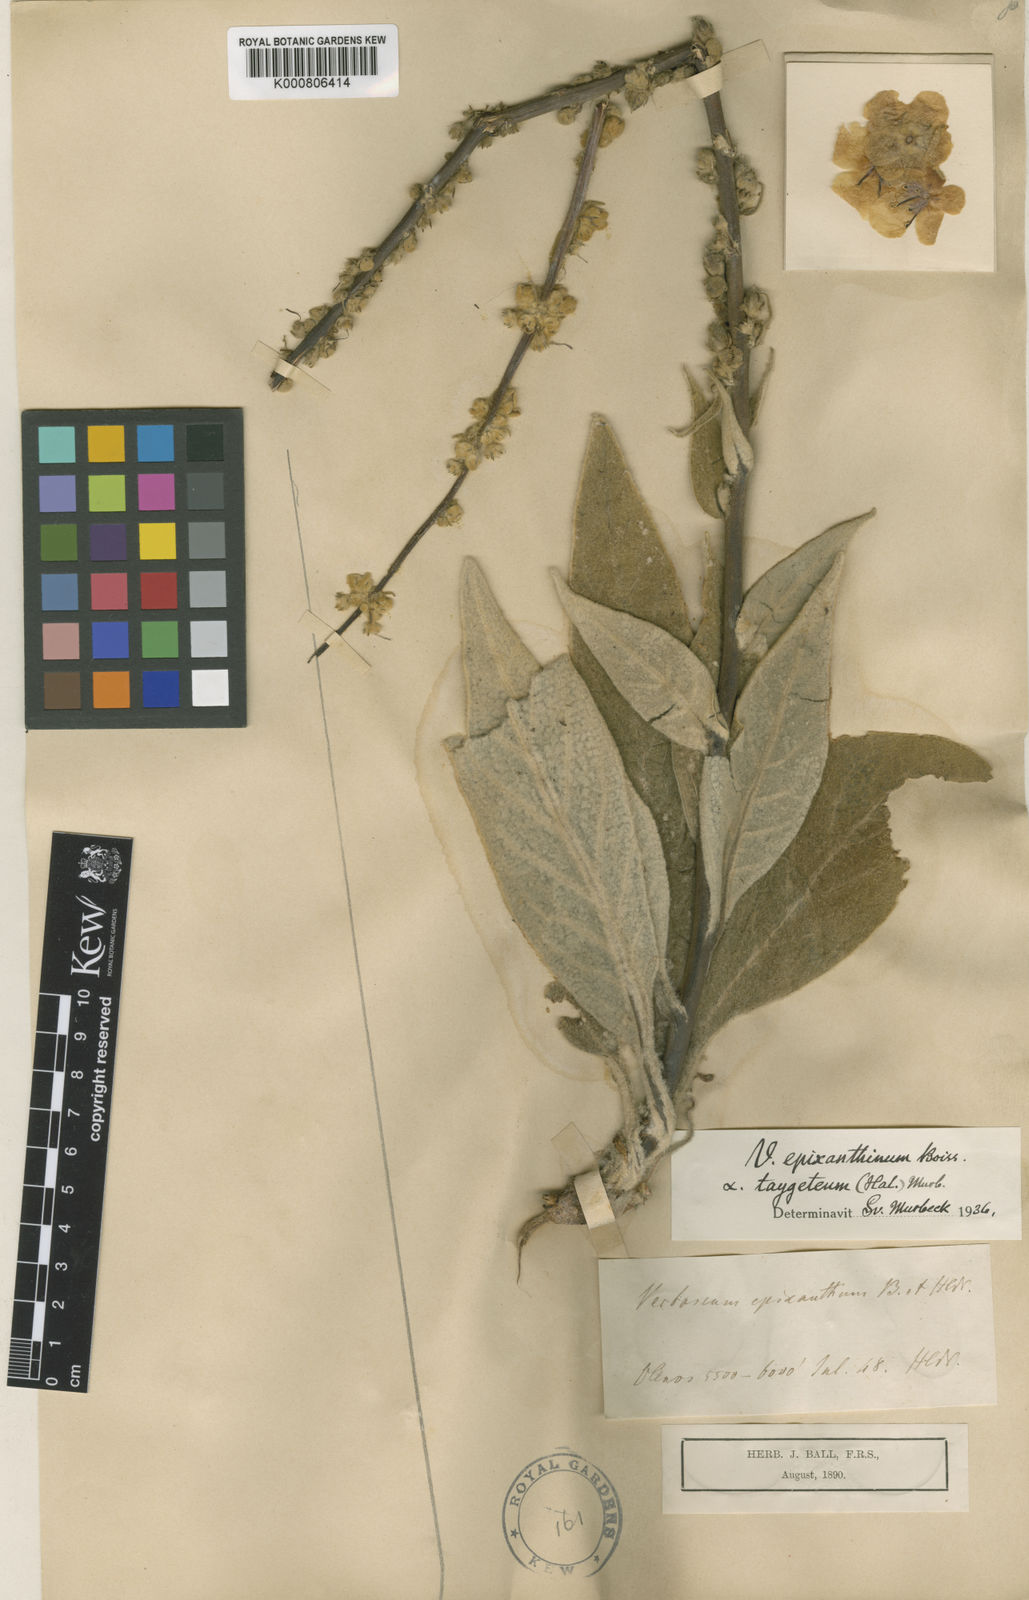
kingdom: Plantae
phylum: Tracheophyta
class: Magnoliopsida
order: Lamiales
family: Scrophulariaceae
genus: Verbascum
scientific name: Verbascum epixanthinum
